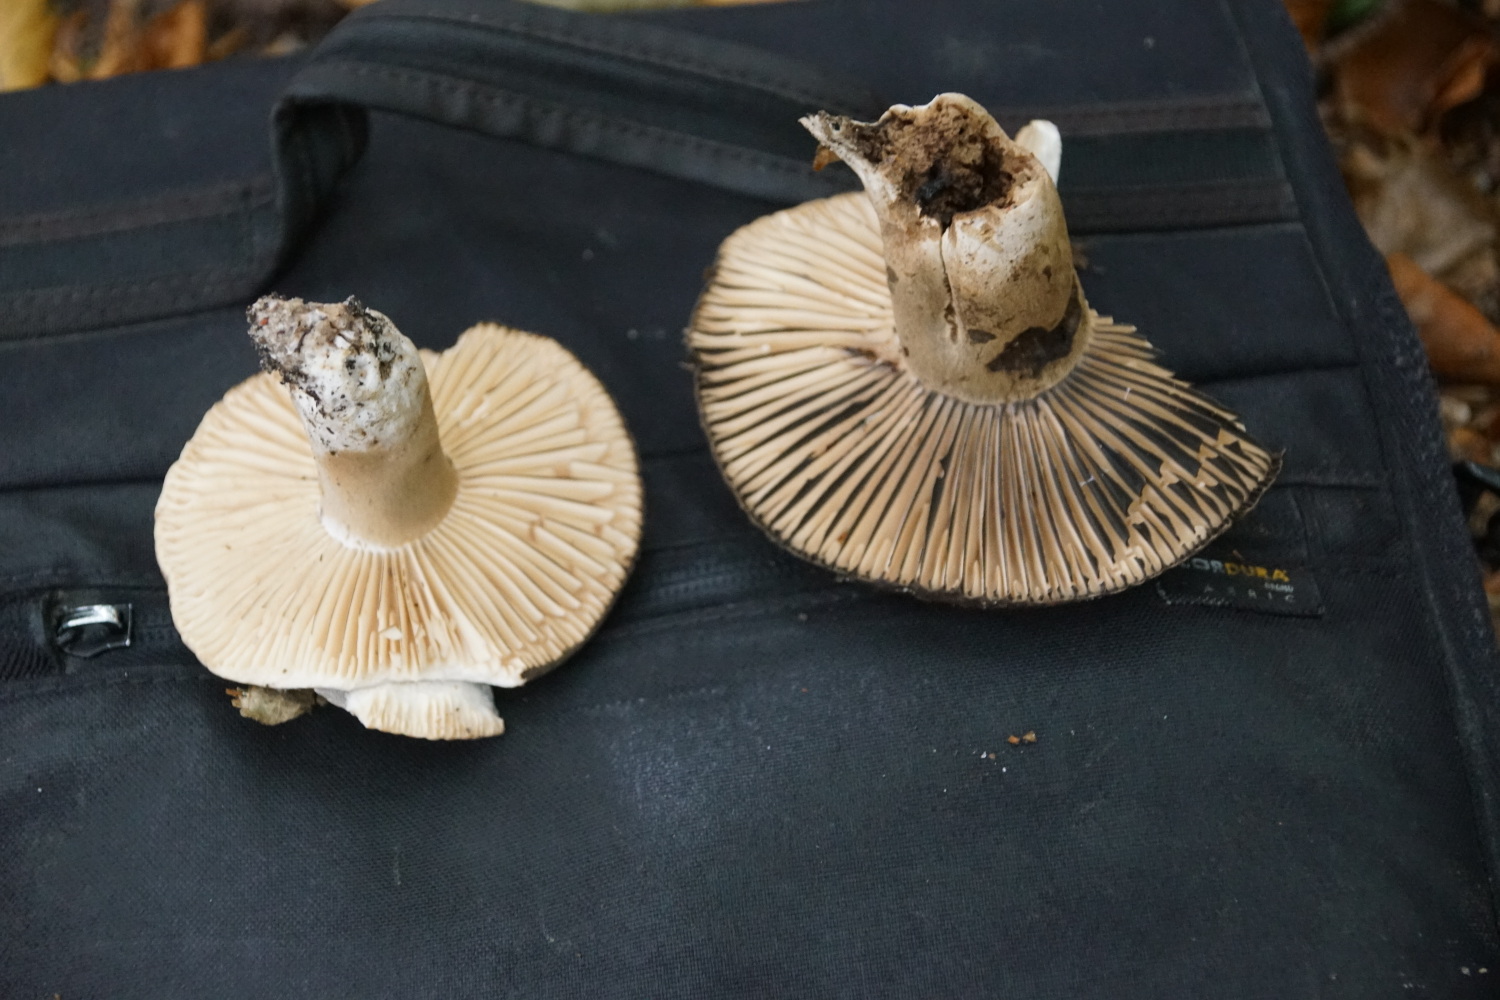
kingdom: Fungi
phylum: Basidiomycota
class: Agaricomycetes
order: Russulales
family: Russulaceae
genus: Russula
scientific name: Russula adusta
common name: sværtende skørhat
